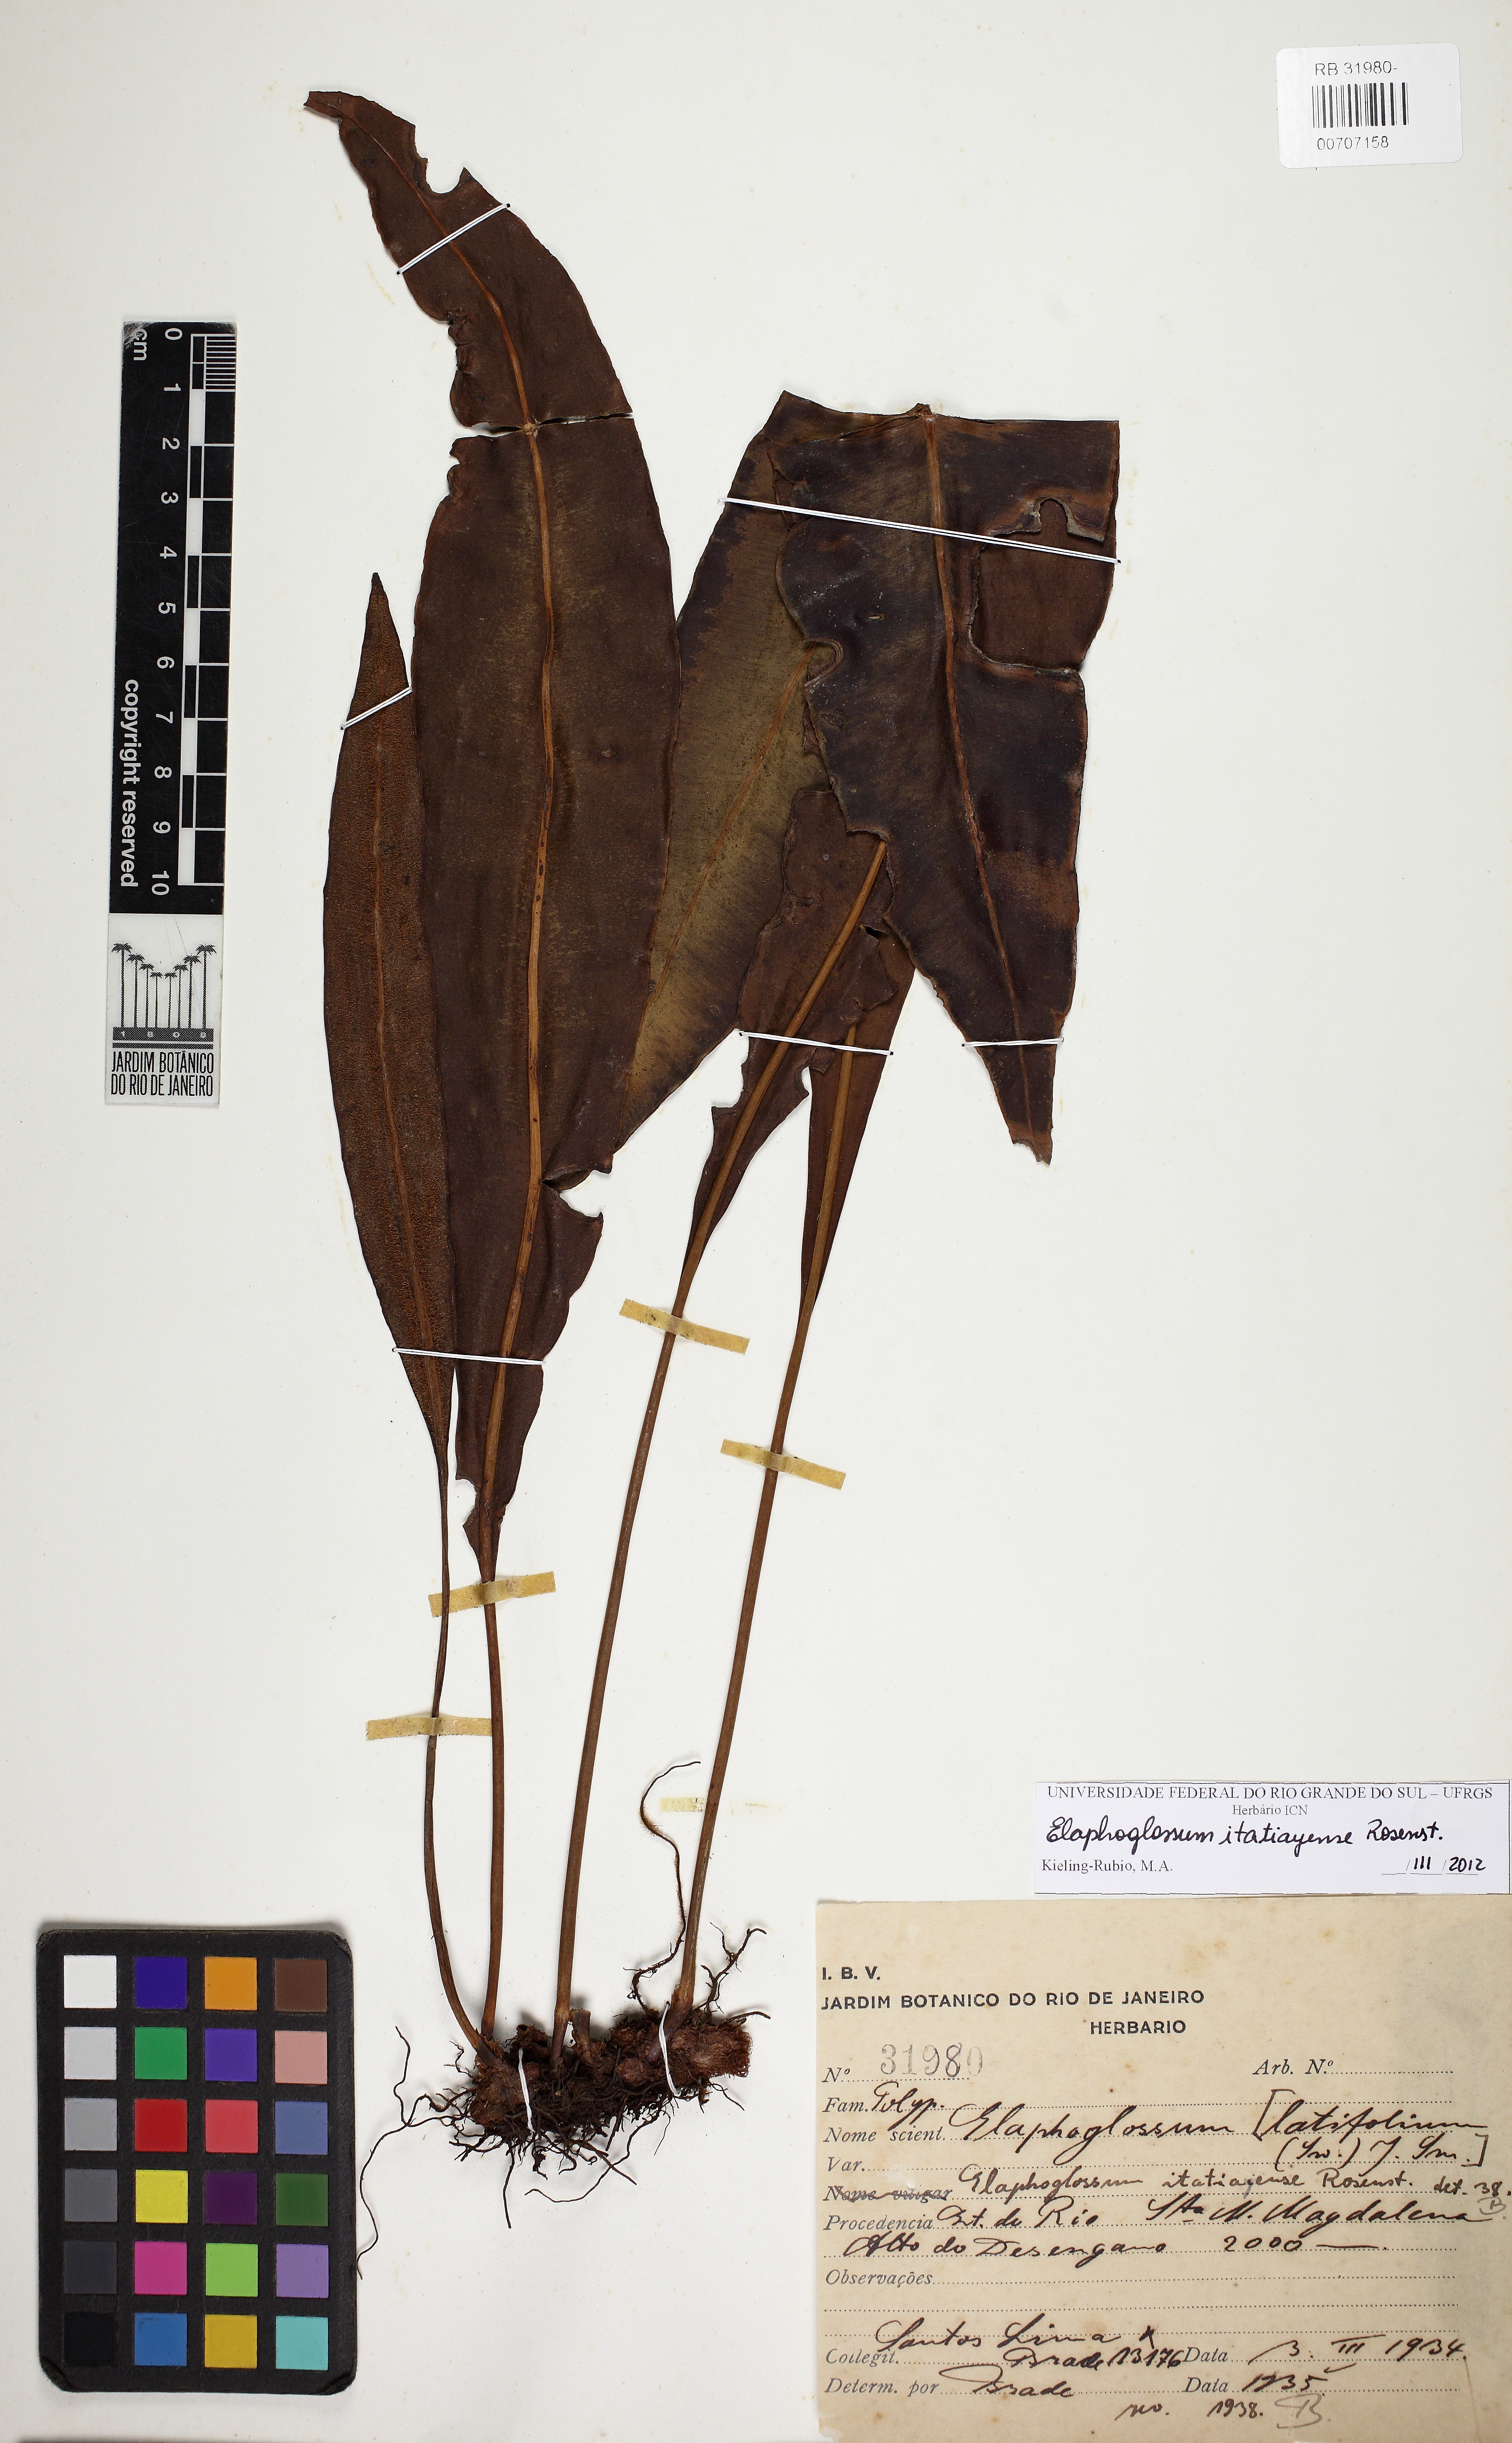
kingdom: Plantae
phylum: Tracheophyta
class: Polypodiopsida
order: Polypodiales
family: Dryopteridaceae
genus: Elaphoglossum
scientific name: Elaphoglossum itatiayense
